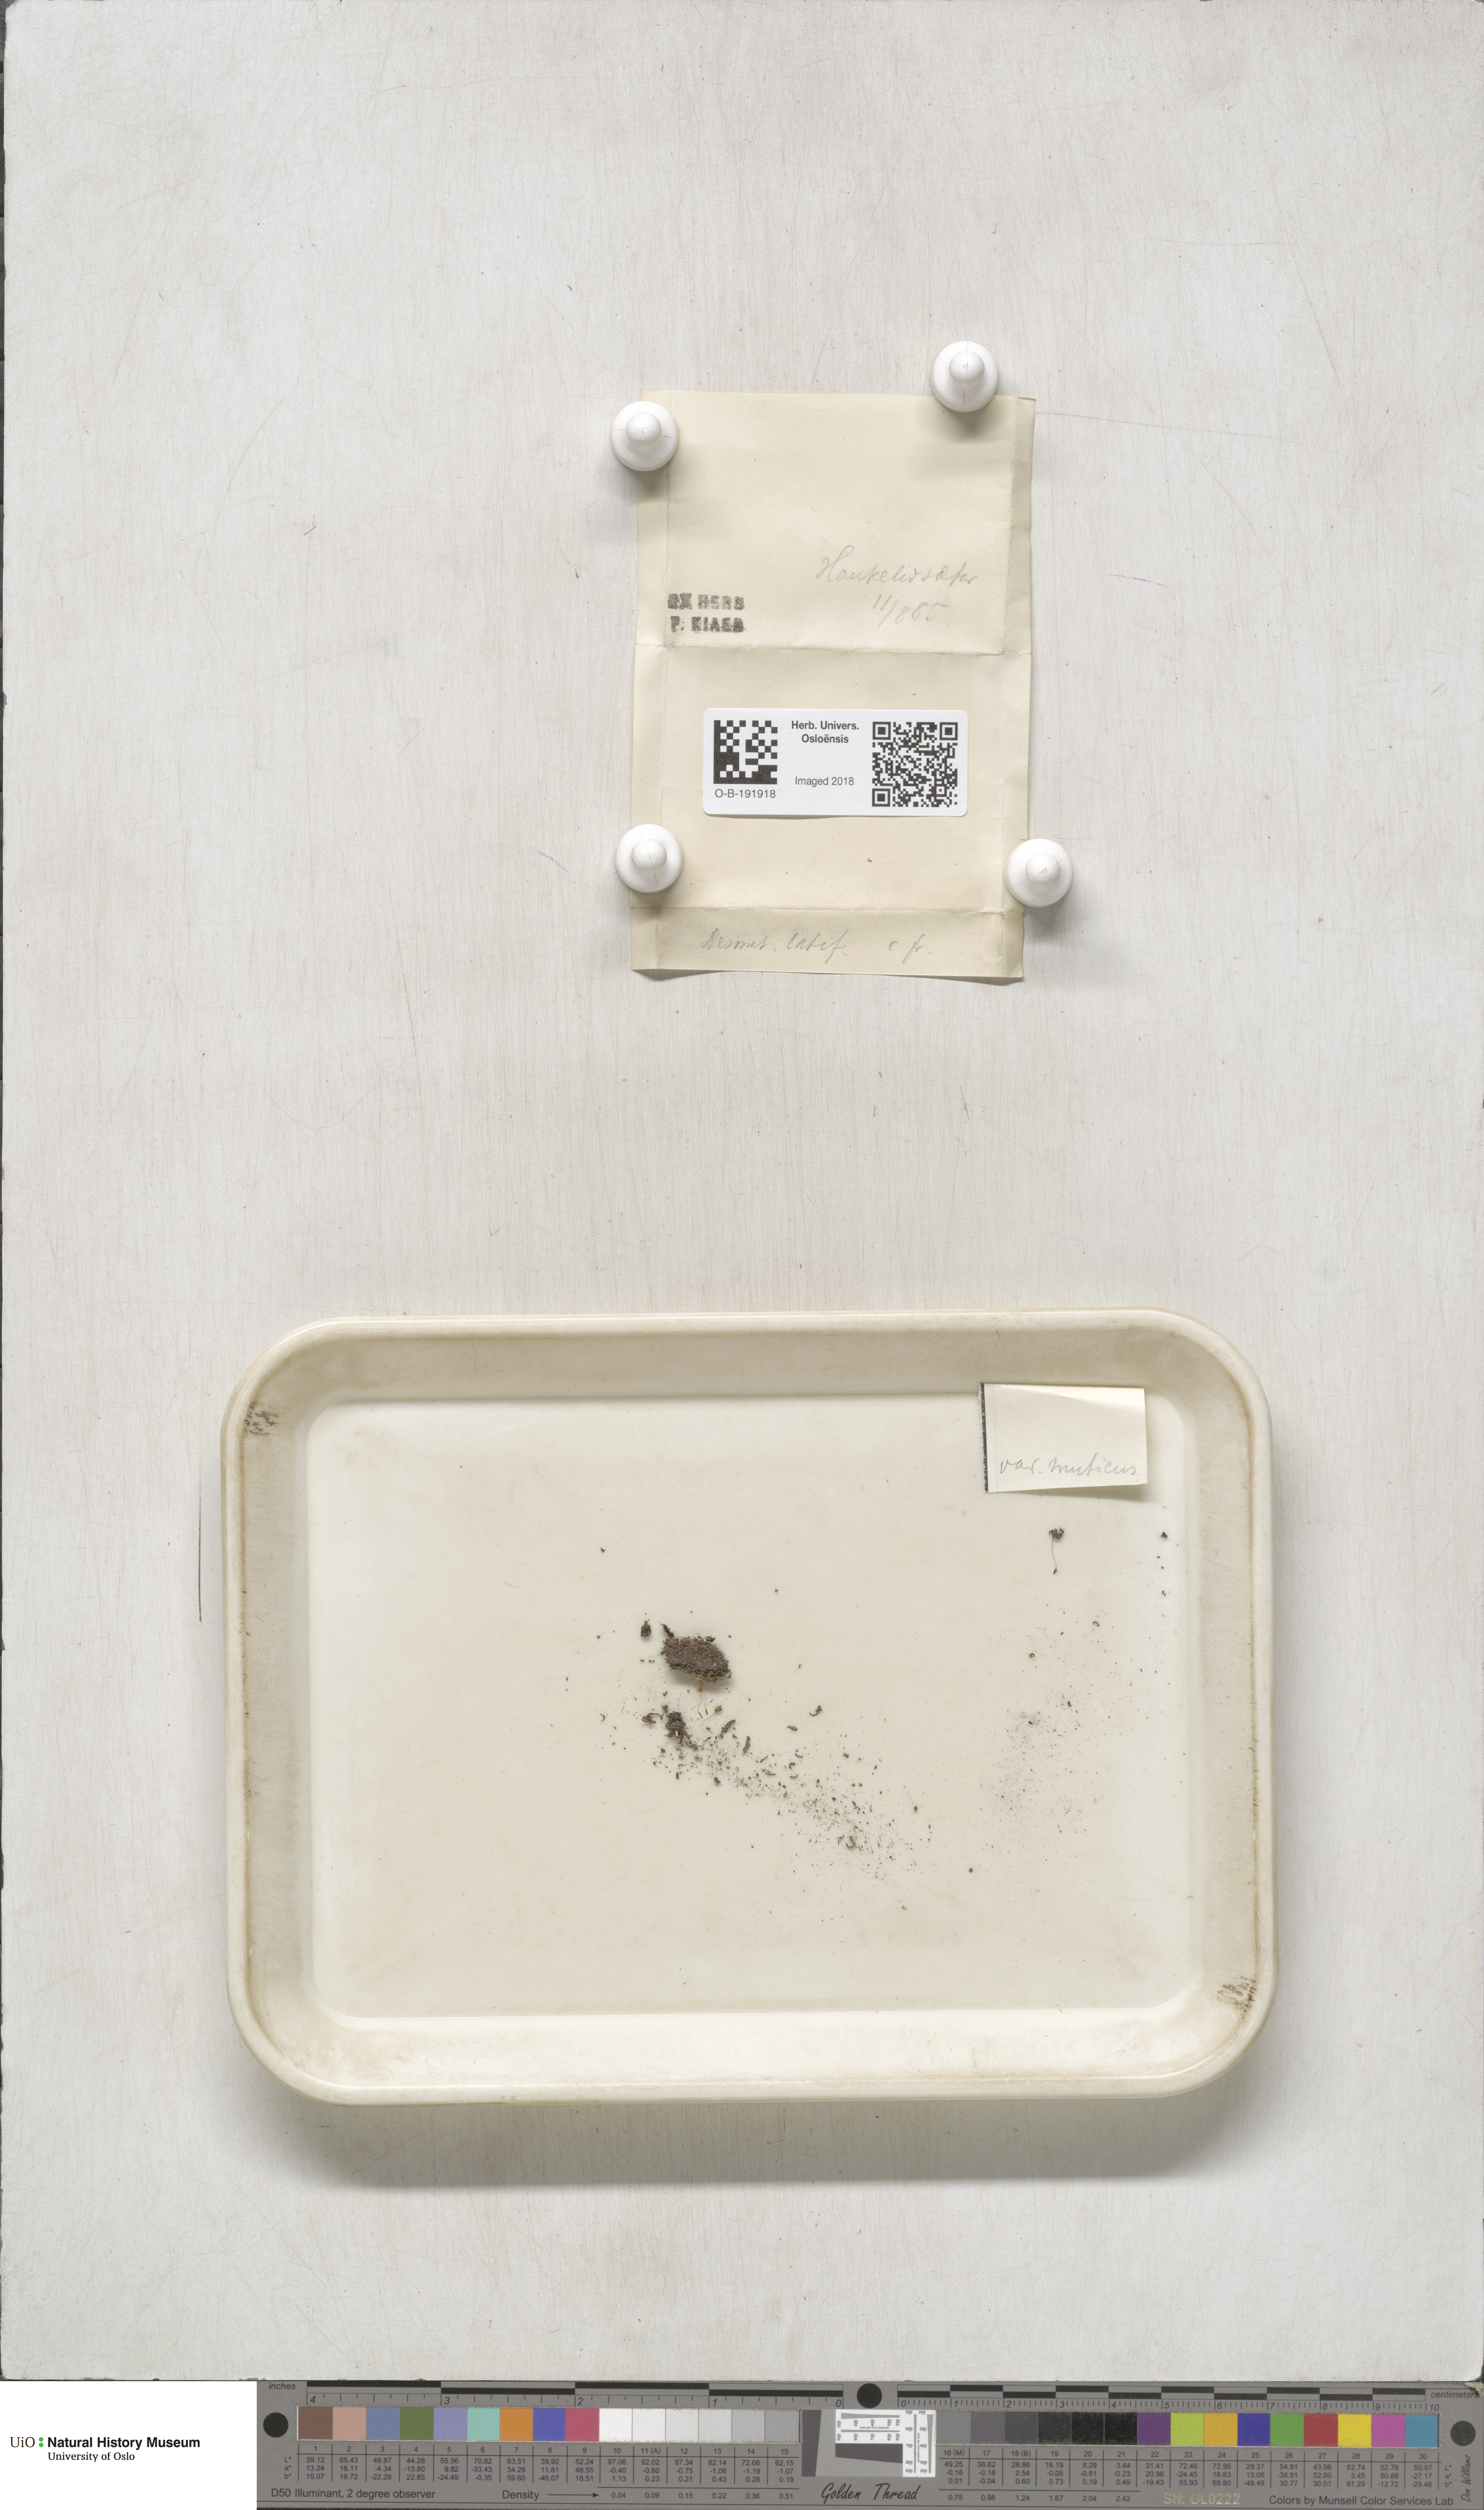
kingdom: Plantae
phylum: Bryophyta
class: Bryopsida
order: Pottiales
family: Pottiaceae
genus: Tortula
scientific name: Tortula hoppeana
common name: Hoppe's screw moss
